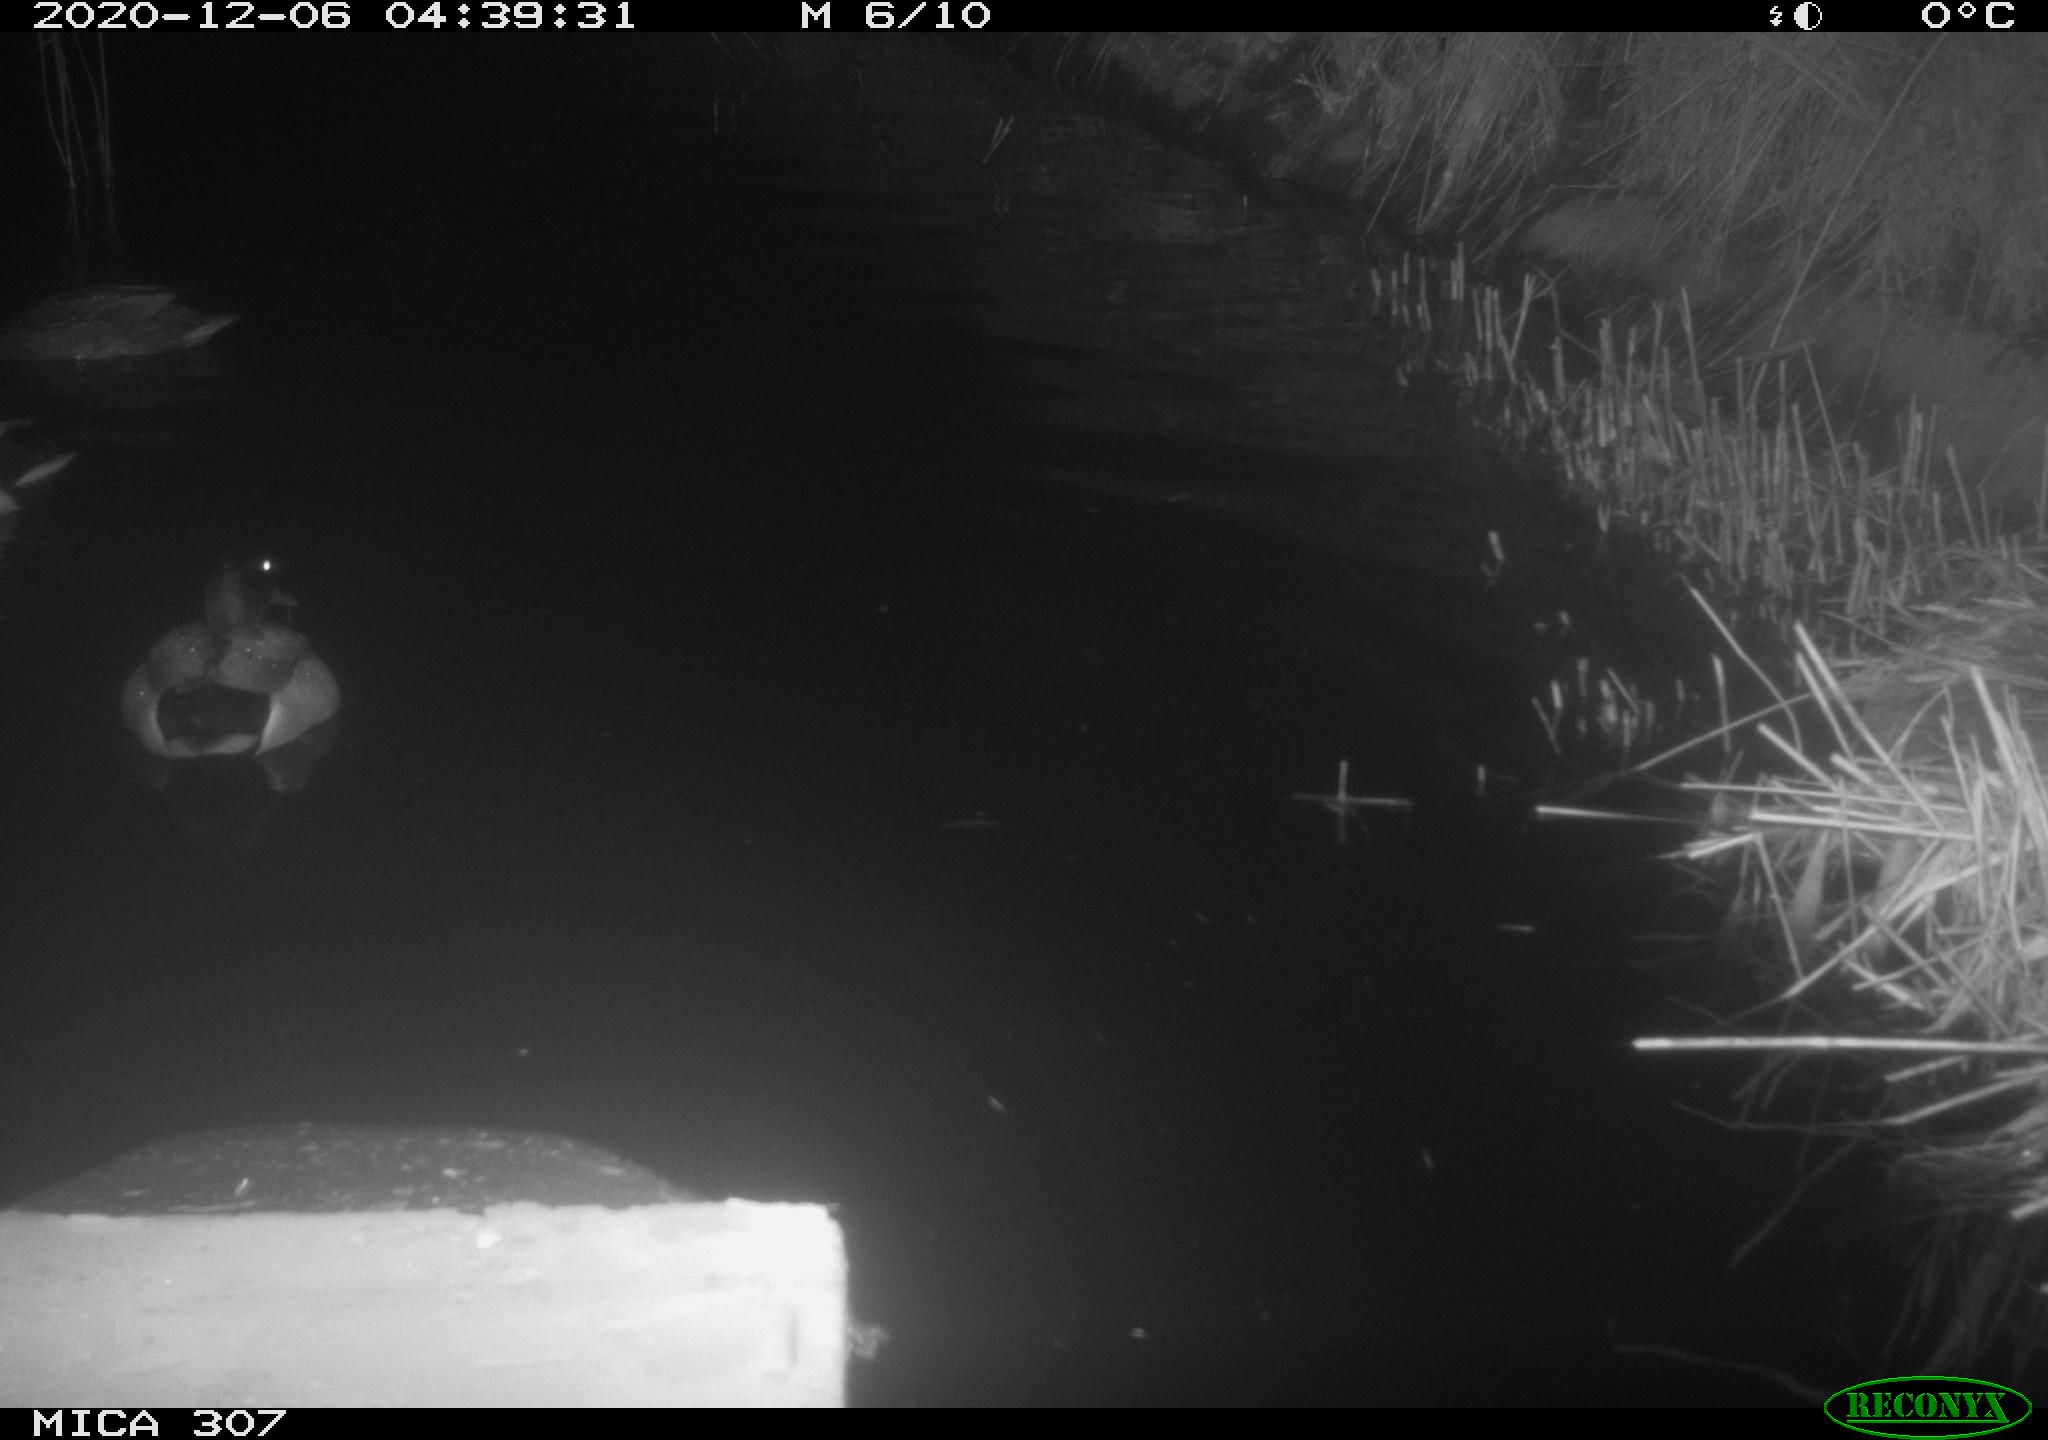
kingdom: Animalia
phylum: Chordata
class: Aves
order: Anseriformes
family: Anatidae
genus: Anas
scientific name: Anas platyrhynchos
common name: Mallard
